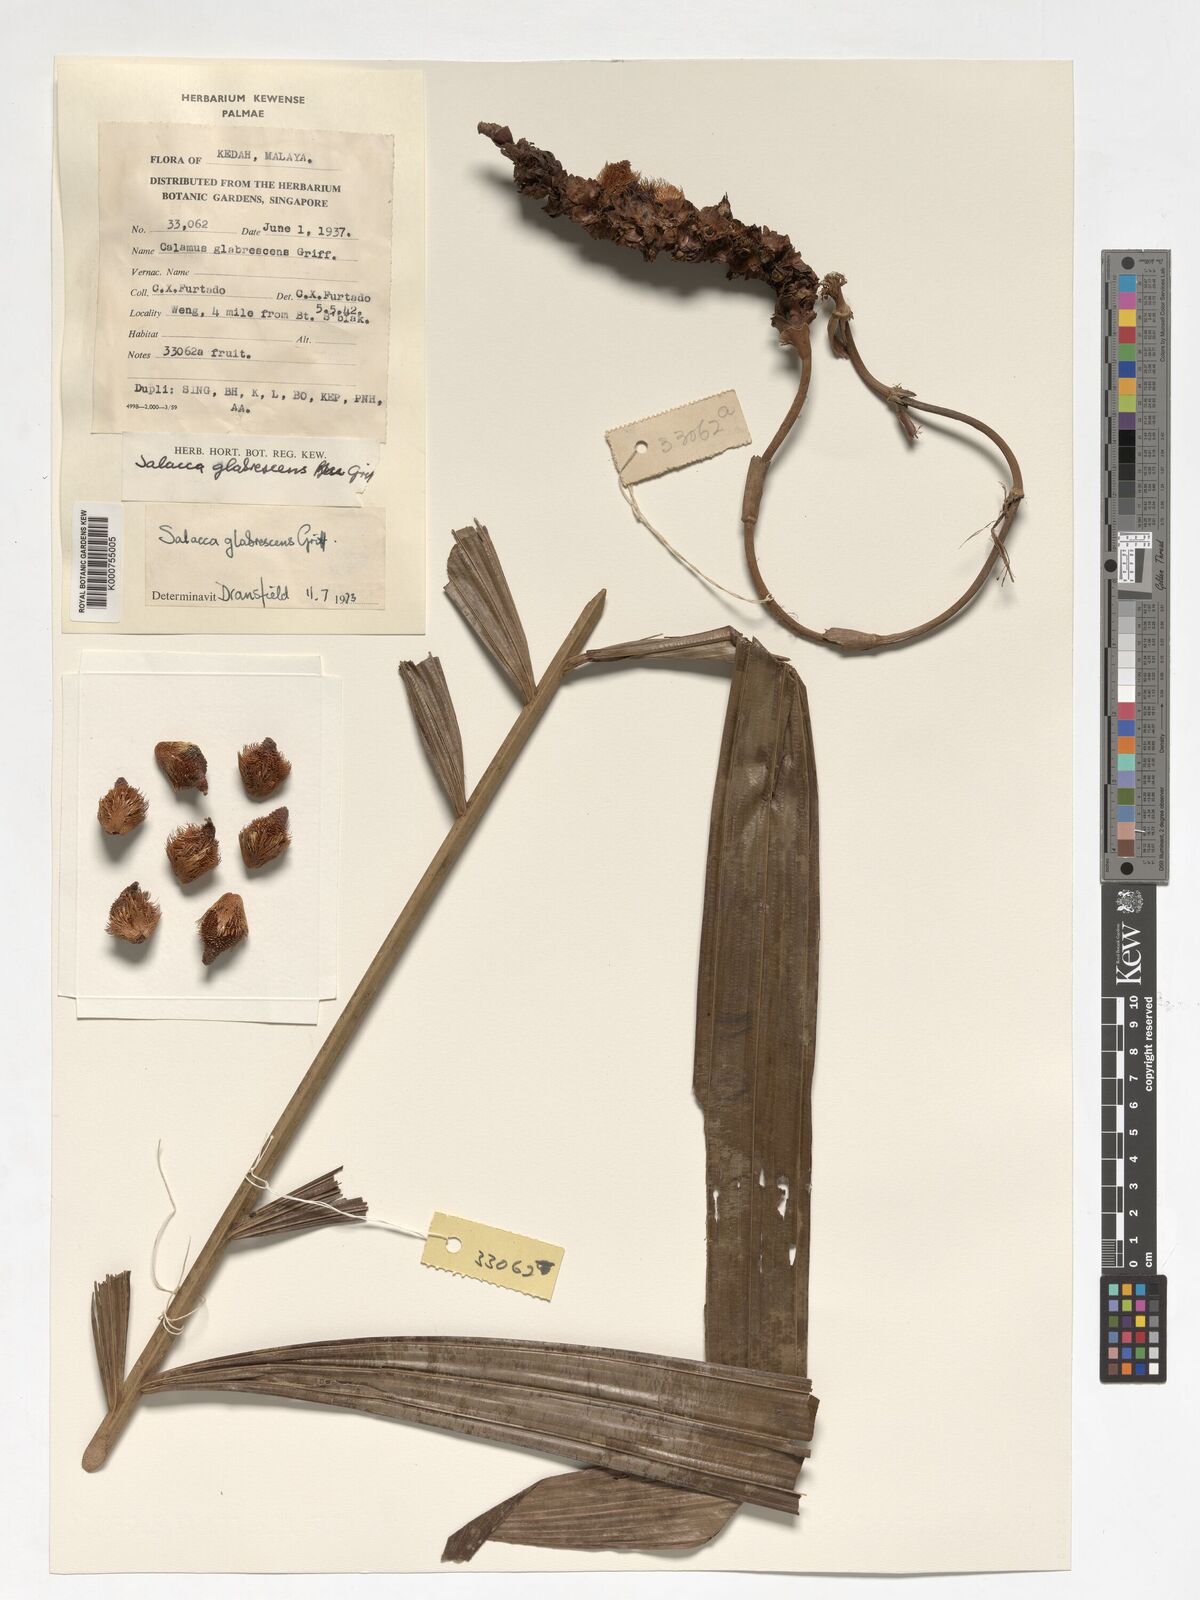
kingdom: Plantae
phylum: Tracheophyta
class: Liliopsida
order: Arecales
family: Arecaceae
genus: Salacca
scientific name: Salacca glabrescens
